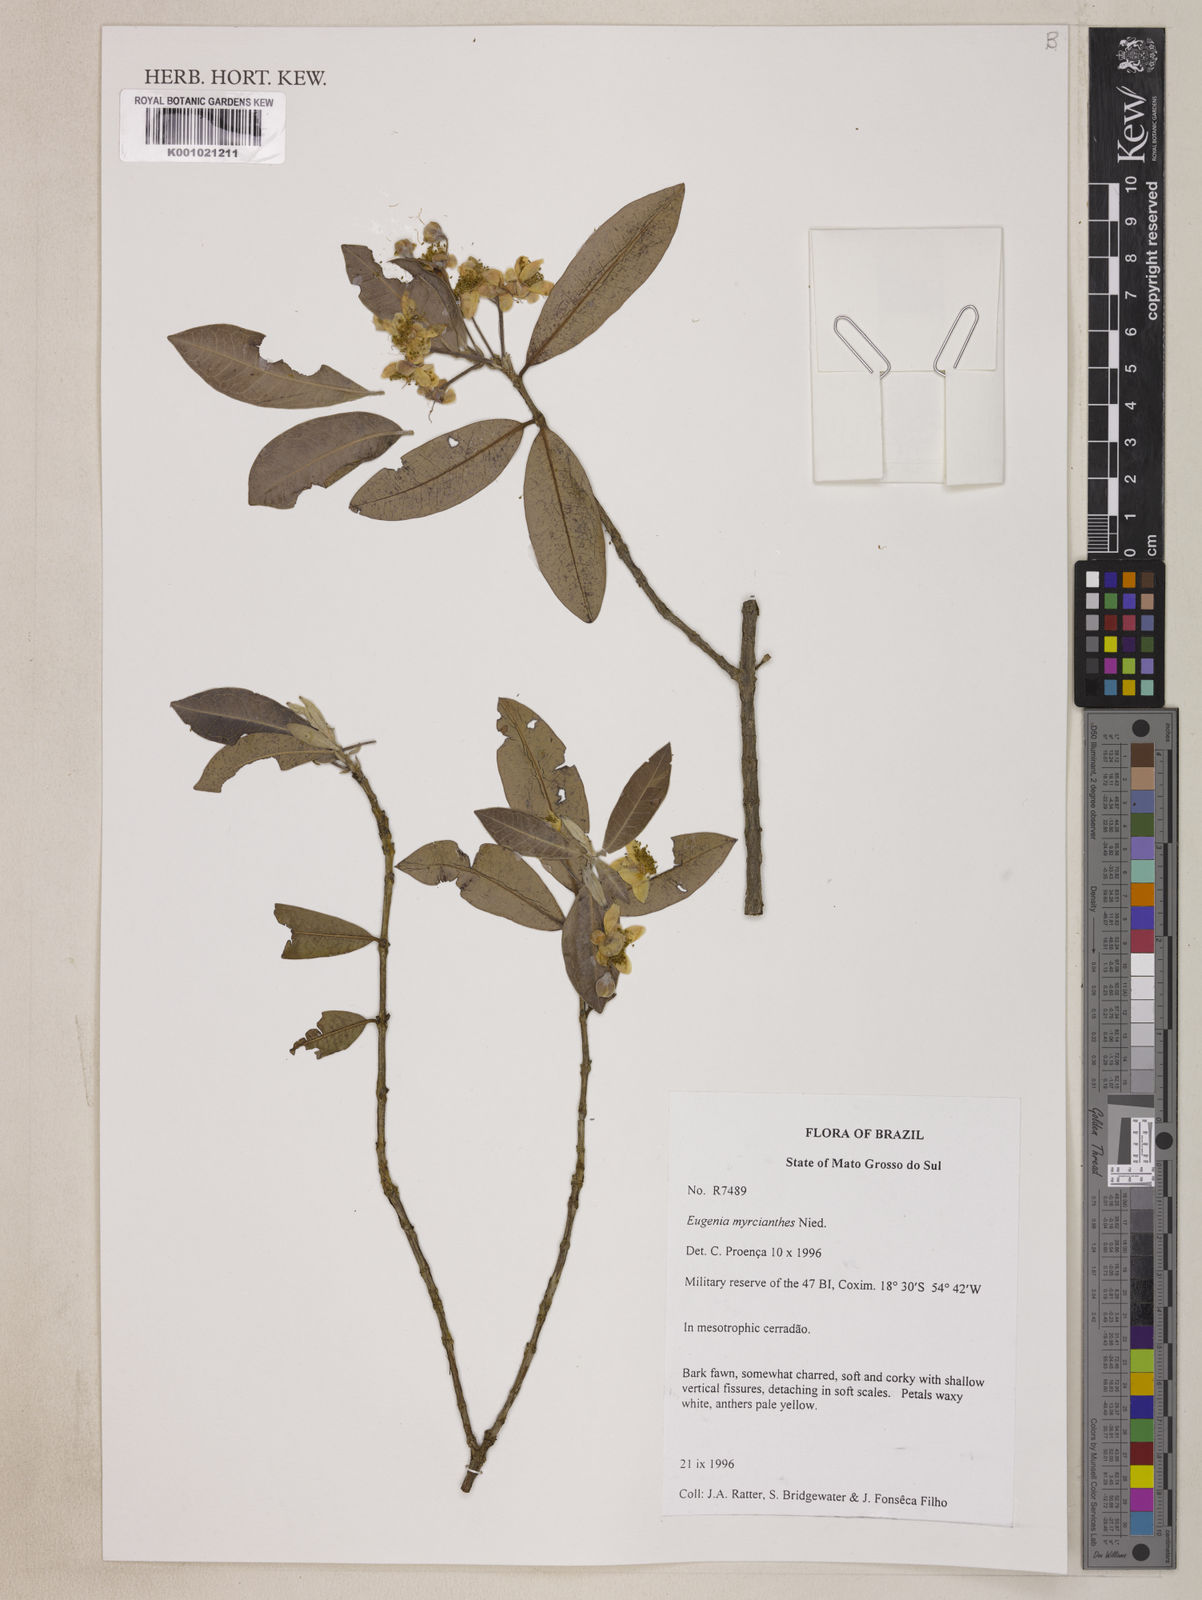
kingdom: Plantae
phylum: Tracheophyta
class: Magnoliopsida
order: Myrtales
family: Myrtaceae
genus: Eugenia
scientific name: Eugenia myrcianthes
